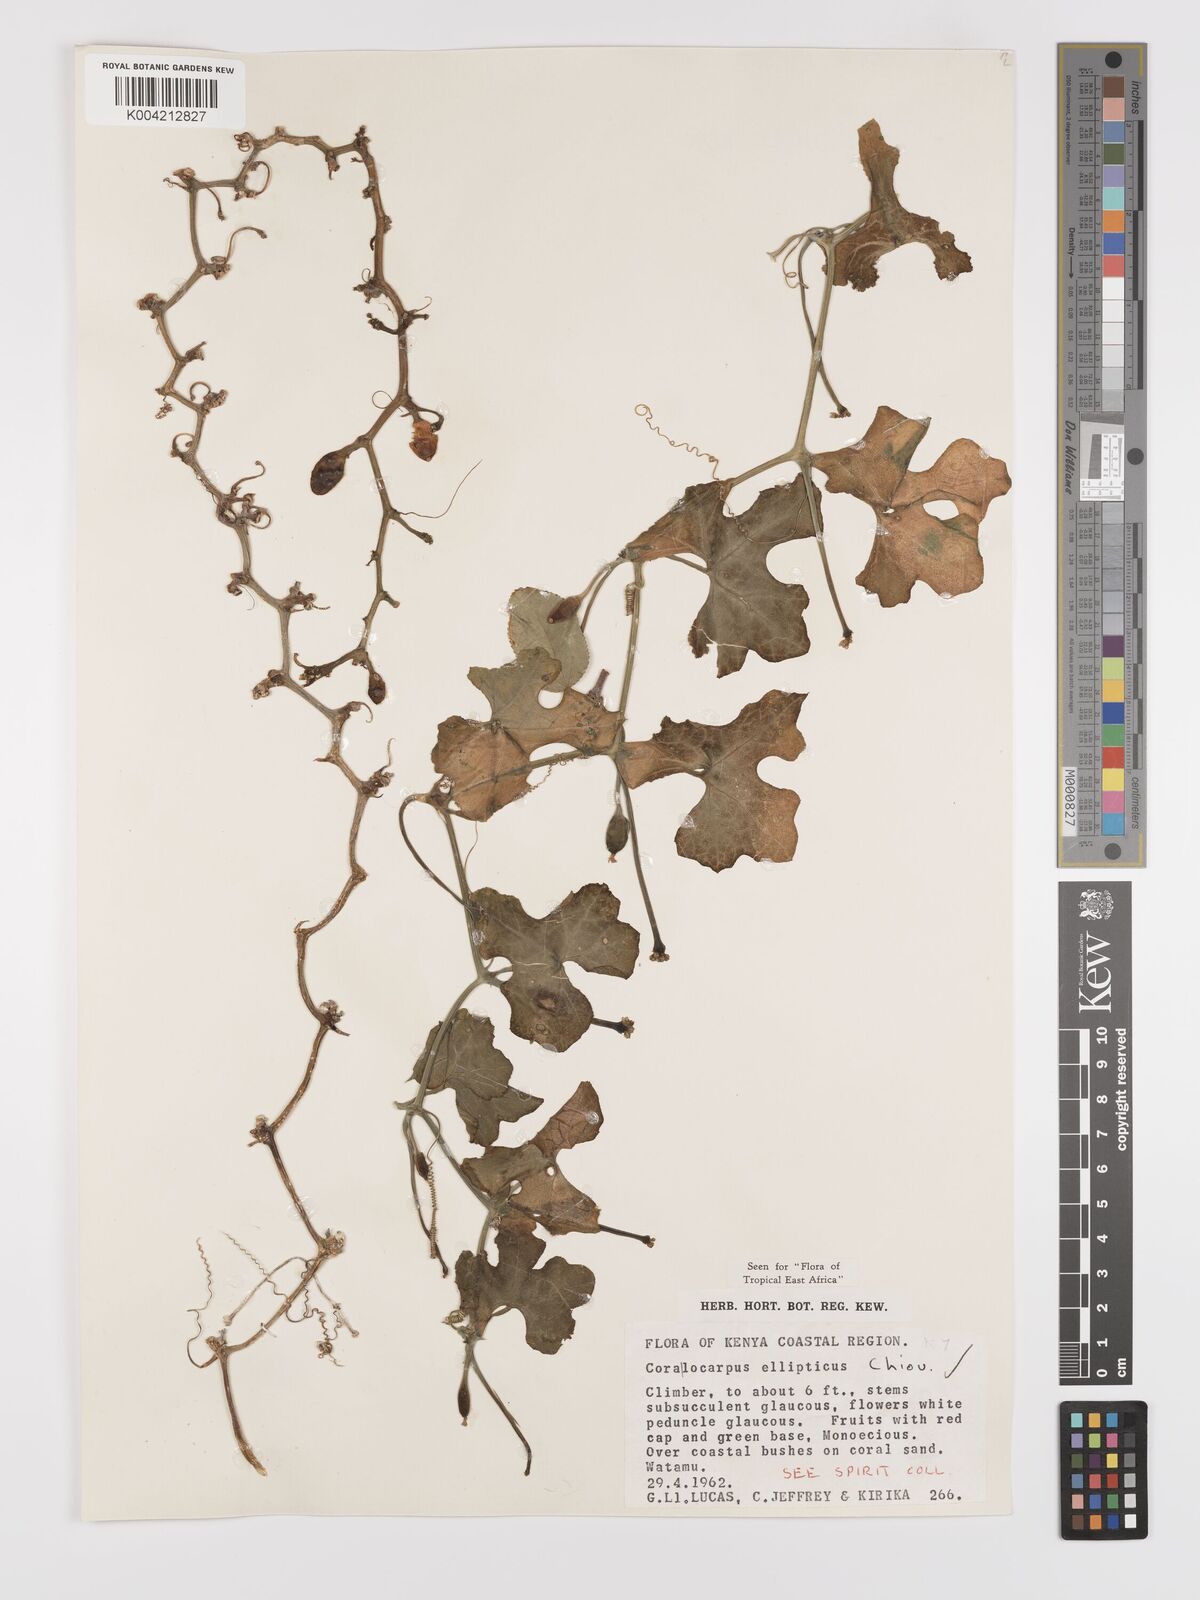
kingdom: Plantae
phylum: Tracheophyta
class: Magnoliopsida
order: Cucurbitales
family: Cucurbitaceae
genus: Corallocarpus
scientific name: Corallocarpus ellipticus
